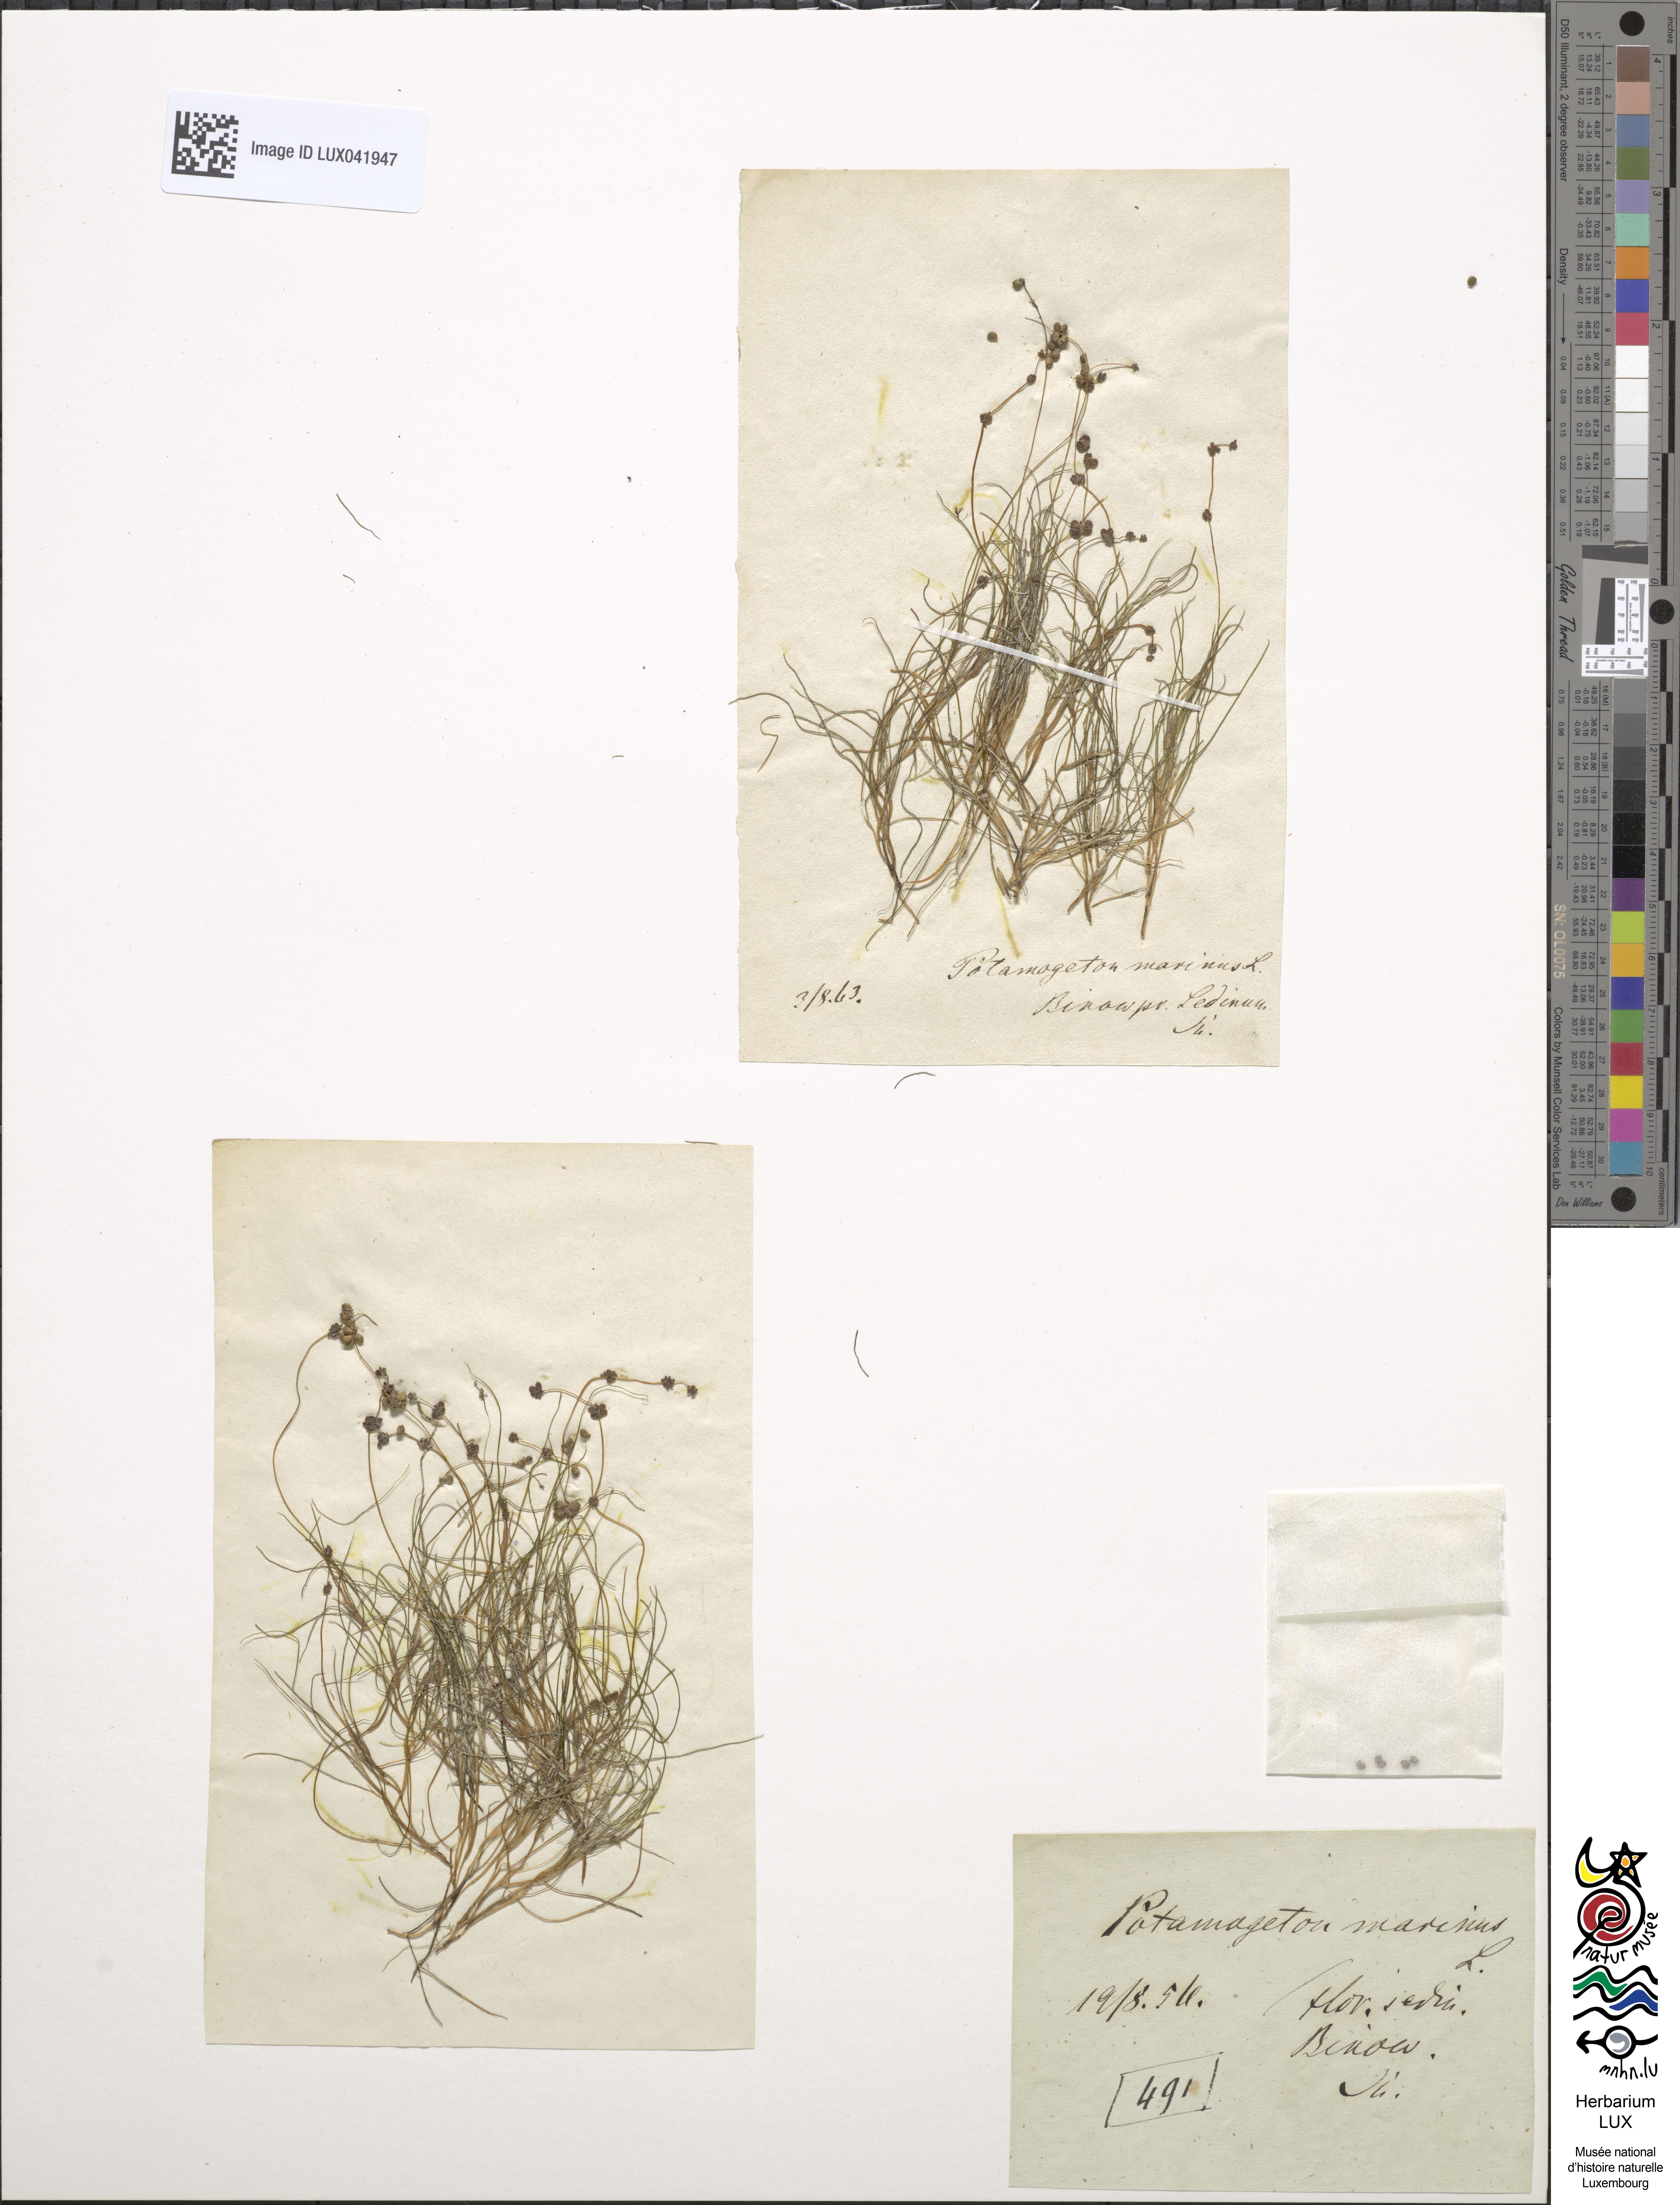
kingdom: Plantae
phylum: Tracheophyta
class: Liliopsida
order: Alismatales
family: Potamogetonaceae
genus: Stuckenia
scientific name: Stuckenia filiformis
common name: Alpine thread-leaved pondweed
